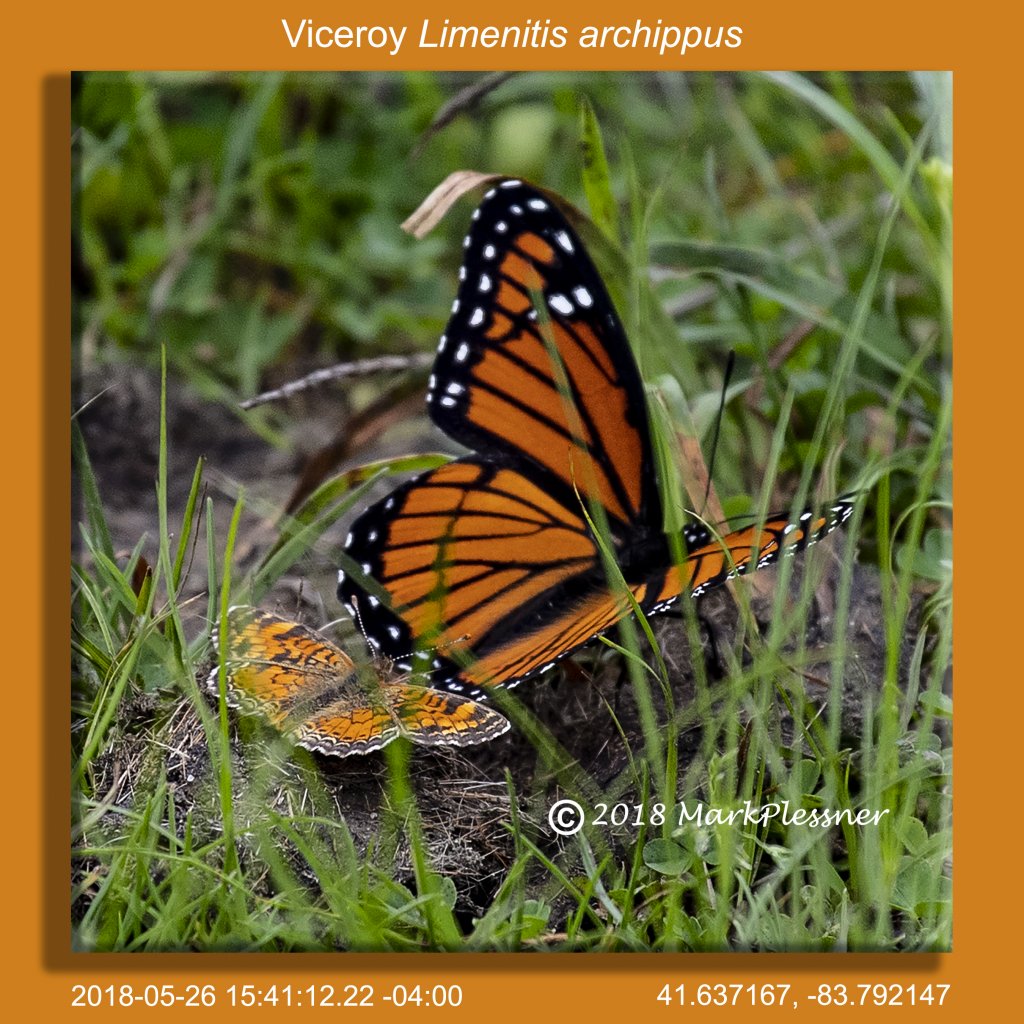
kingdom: Animalia
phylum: Arthropoda
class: Insecta
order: Lepidoptera
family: Nymphalidae
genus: Limenitis
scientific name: Limenitis archippus
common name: Viceroy
